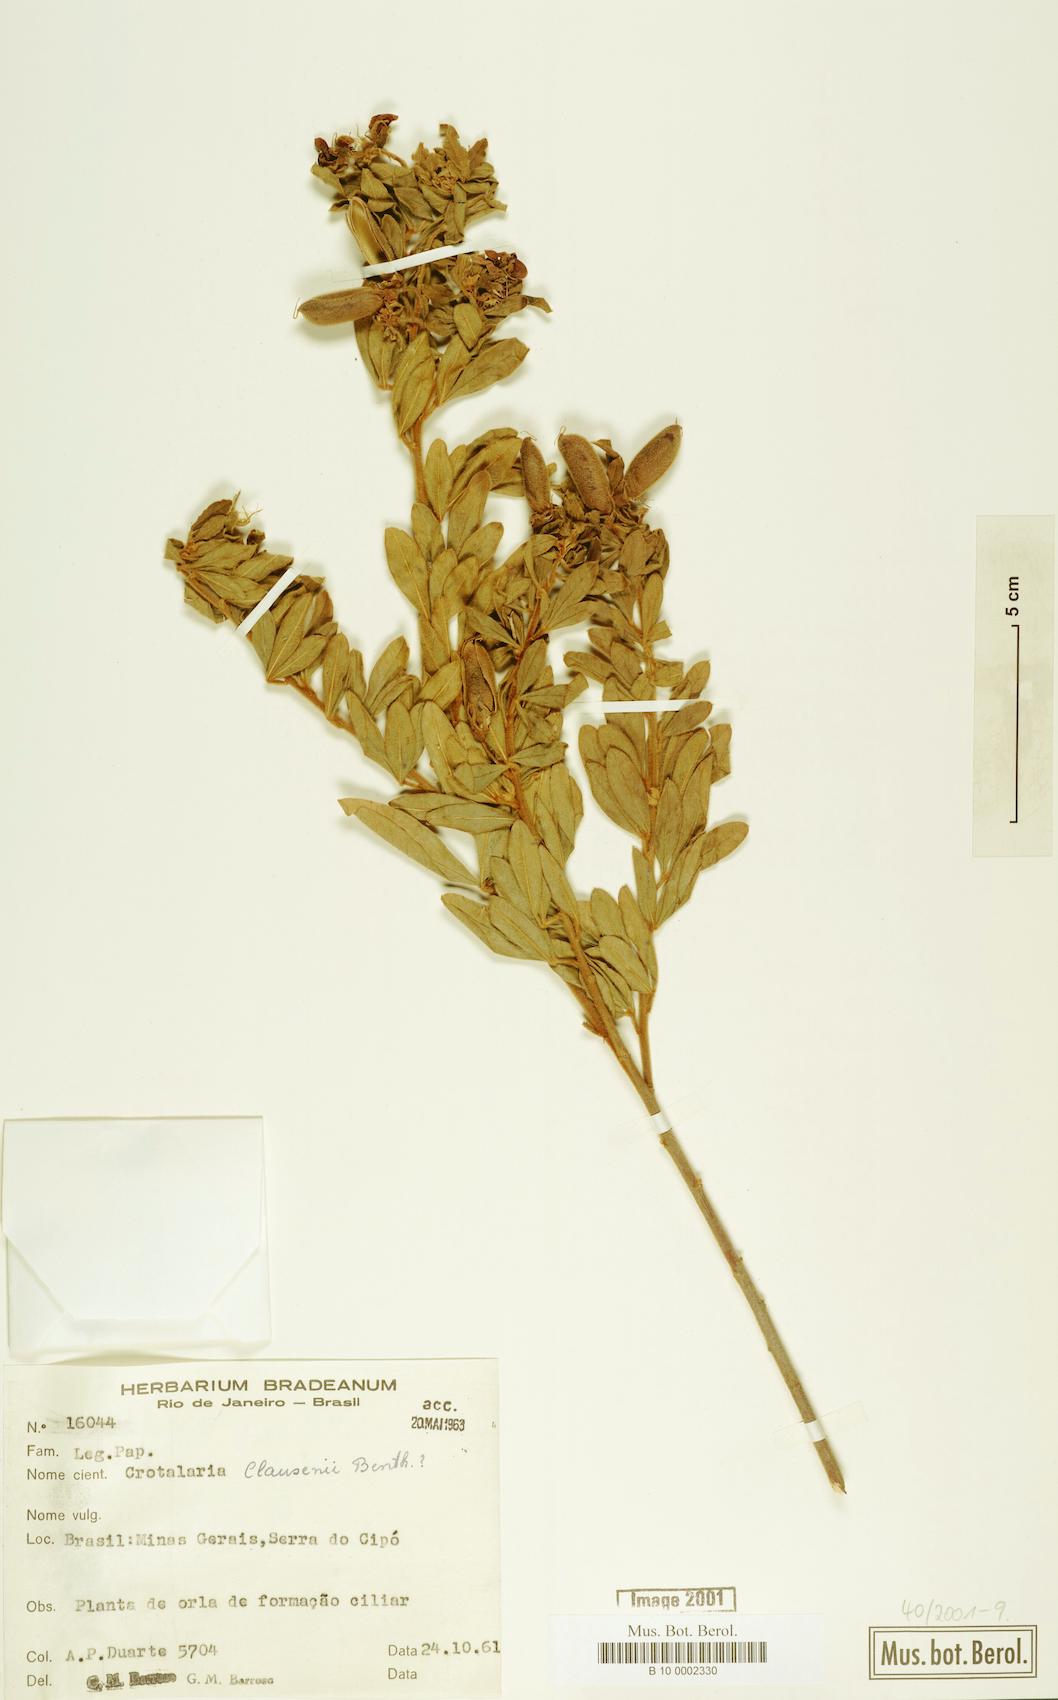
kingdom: Plantae
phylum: Tracheophyta
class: Magnoliopsida
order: Fabales
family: Fabaceae
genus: Crotalaria
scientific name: Crotalaria claussenii
